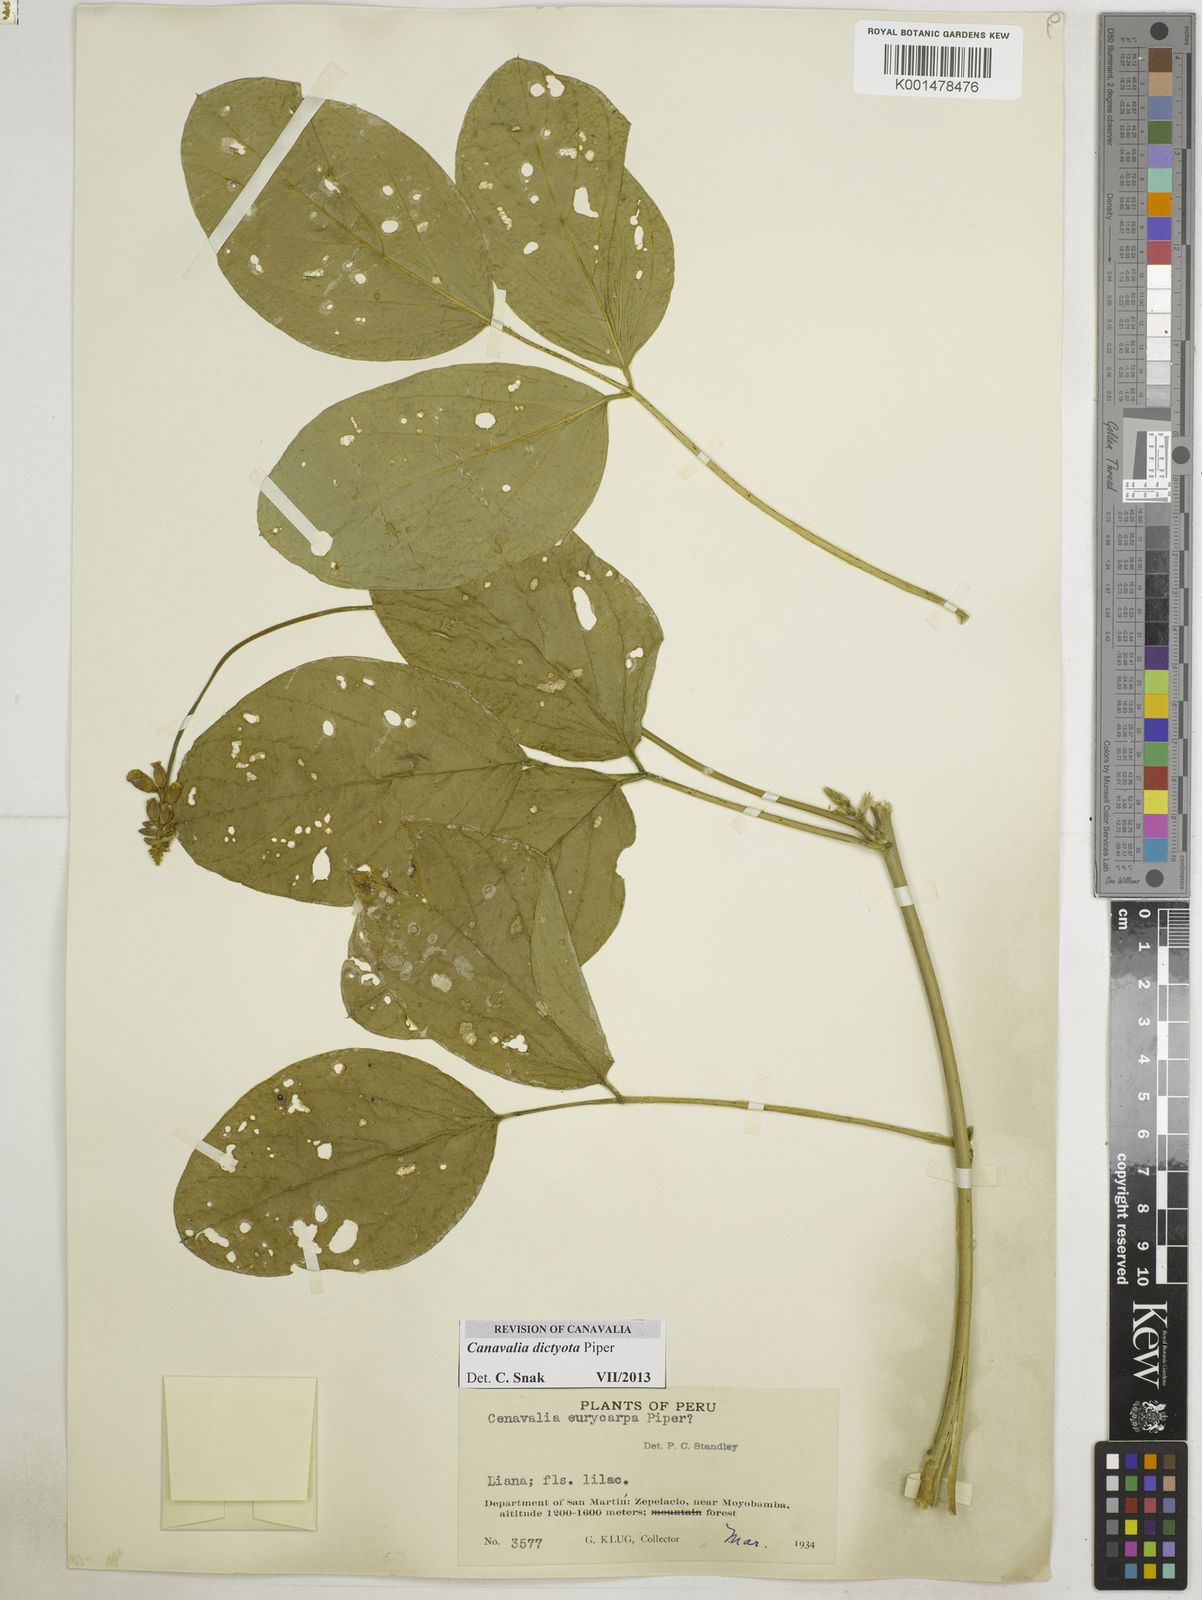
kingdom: Plantae
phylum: Tracheophyta
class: Magnoliopsida
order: Fabales
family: Fabaceae
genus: Canavalia
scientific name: Canavalia brasiliensis
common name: Barbicou-bean
